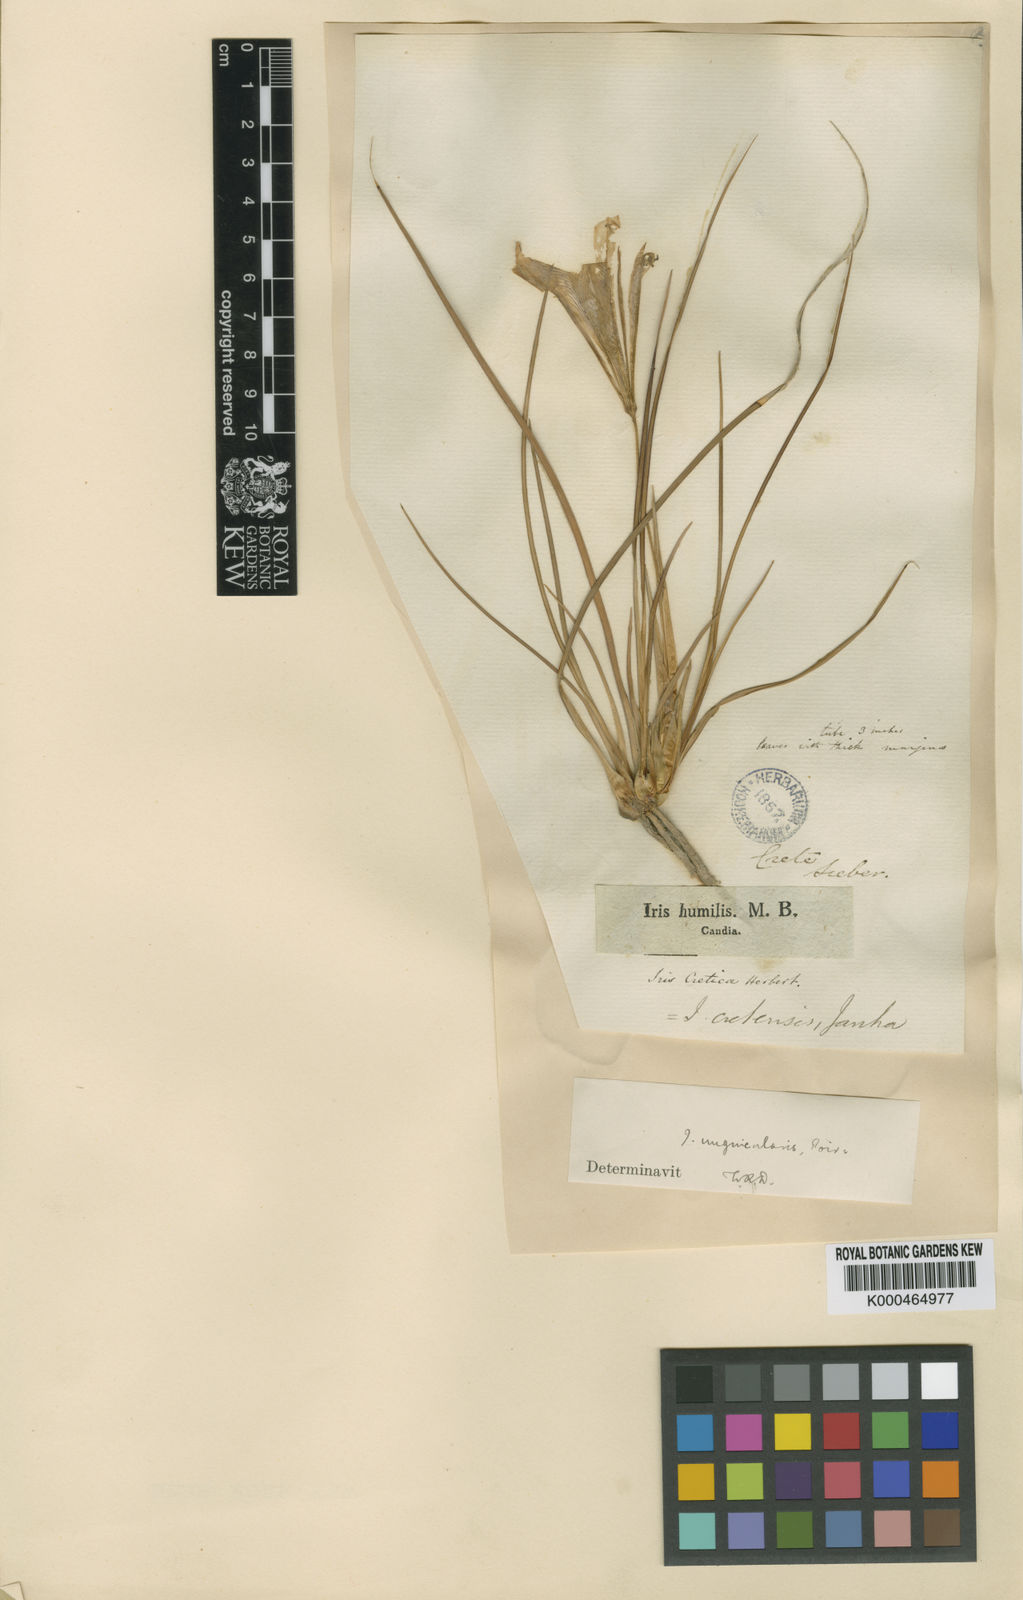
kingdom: Plantae
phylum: Tracheophyta
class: Liliopsida
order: Asparagales
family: Iridaceae
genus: Iris
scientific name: Iris unguicularis
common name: Algerian iris
